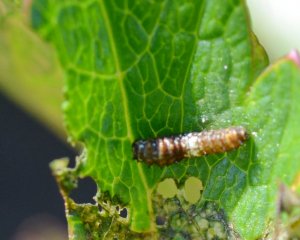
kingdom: Animalia
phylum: Arthropoda
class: Insecta
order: Lepidoptera
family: Papilionidae
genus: Papilio
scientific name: Papilio brevicauda
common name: Short-tailed Swallowtail
